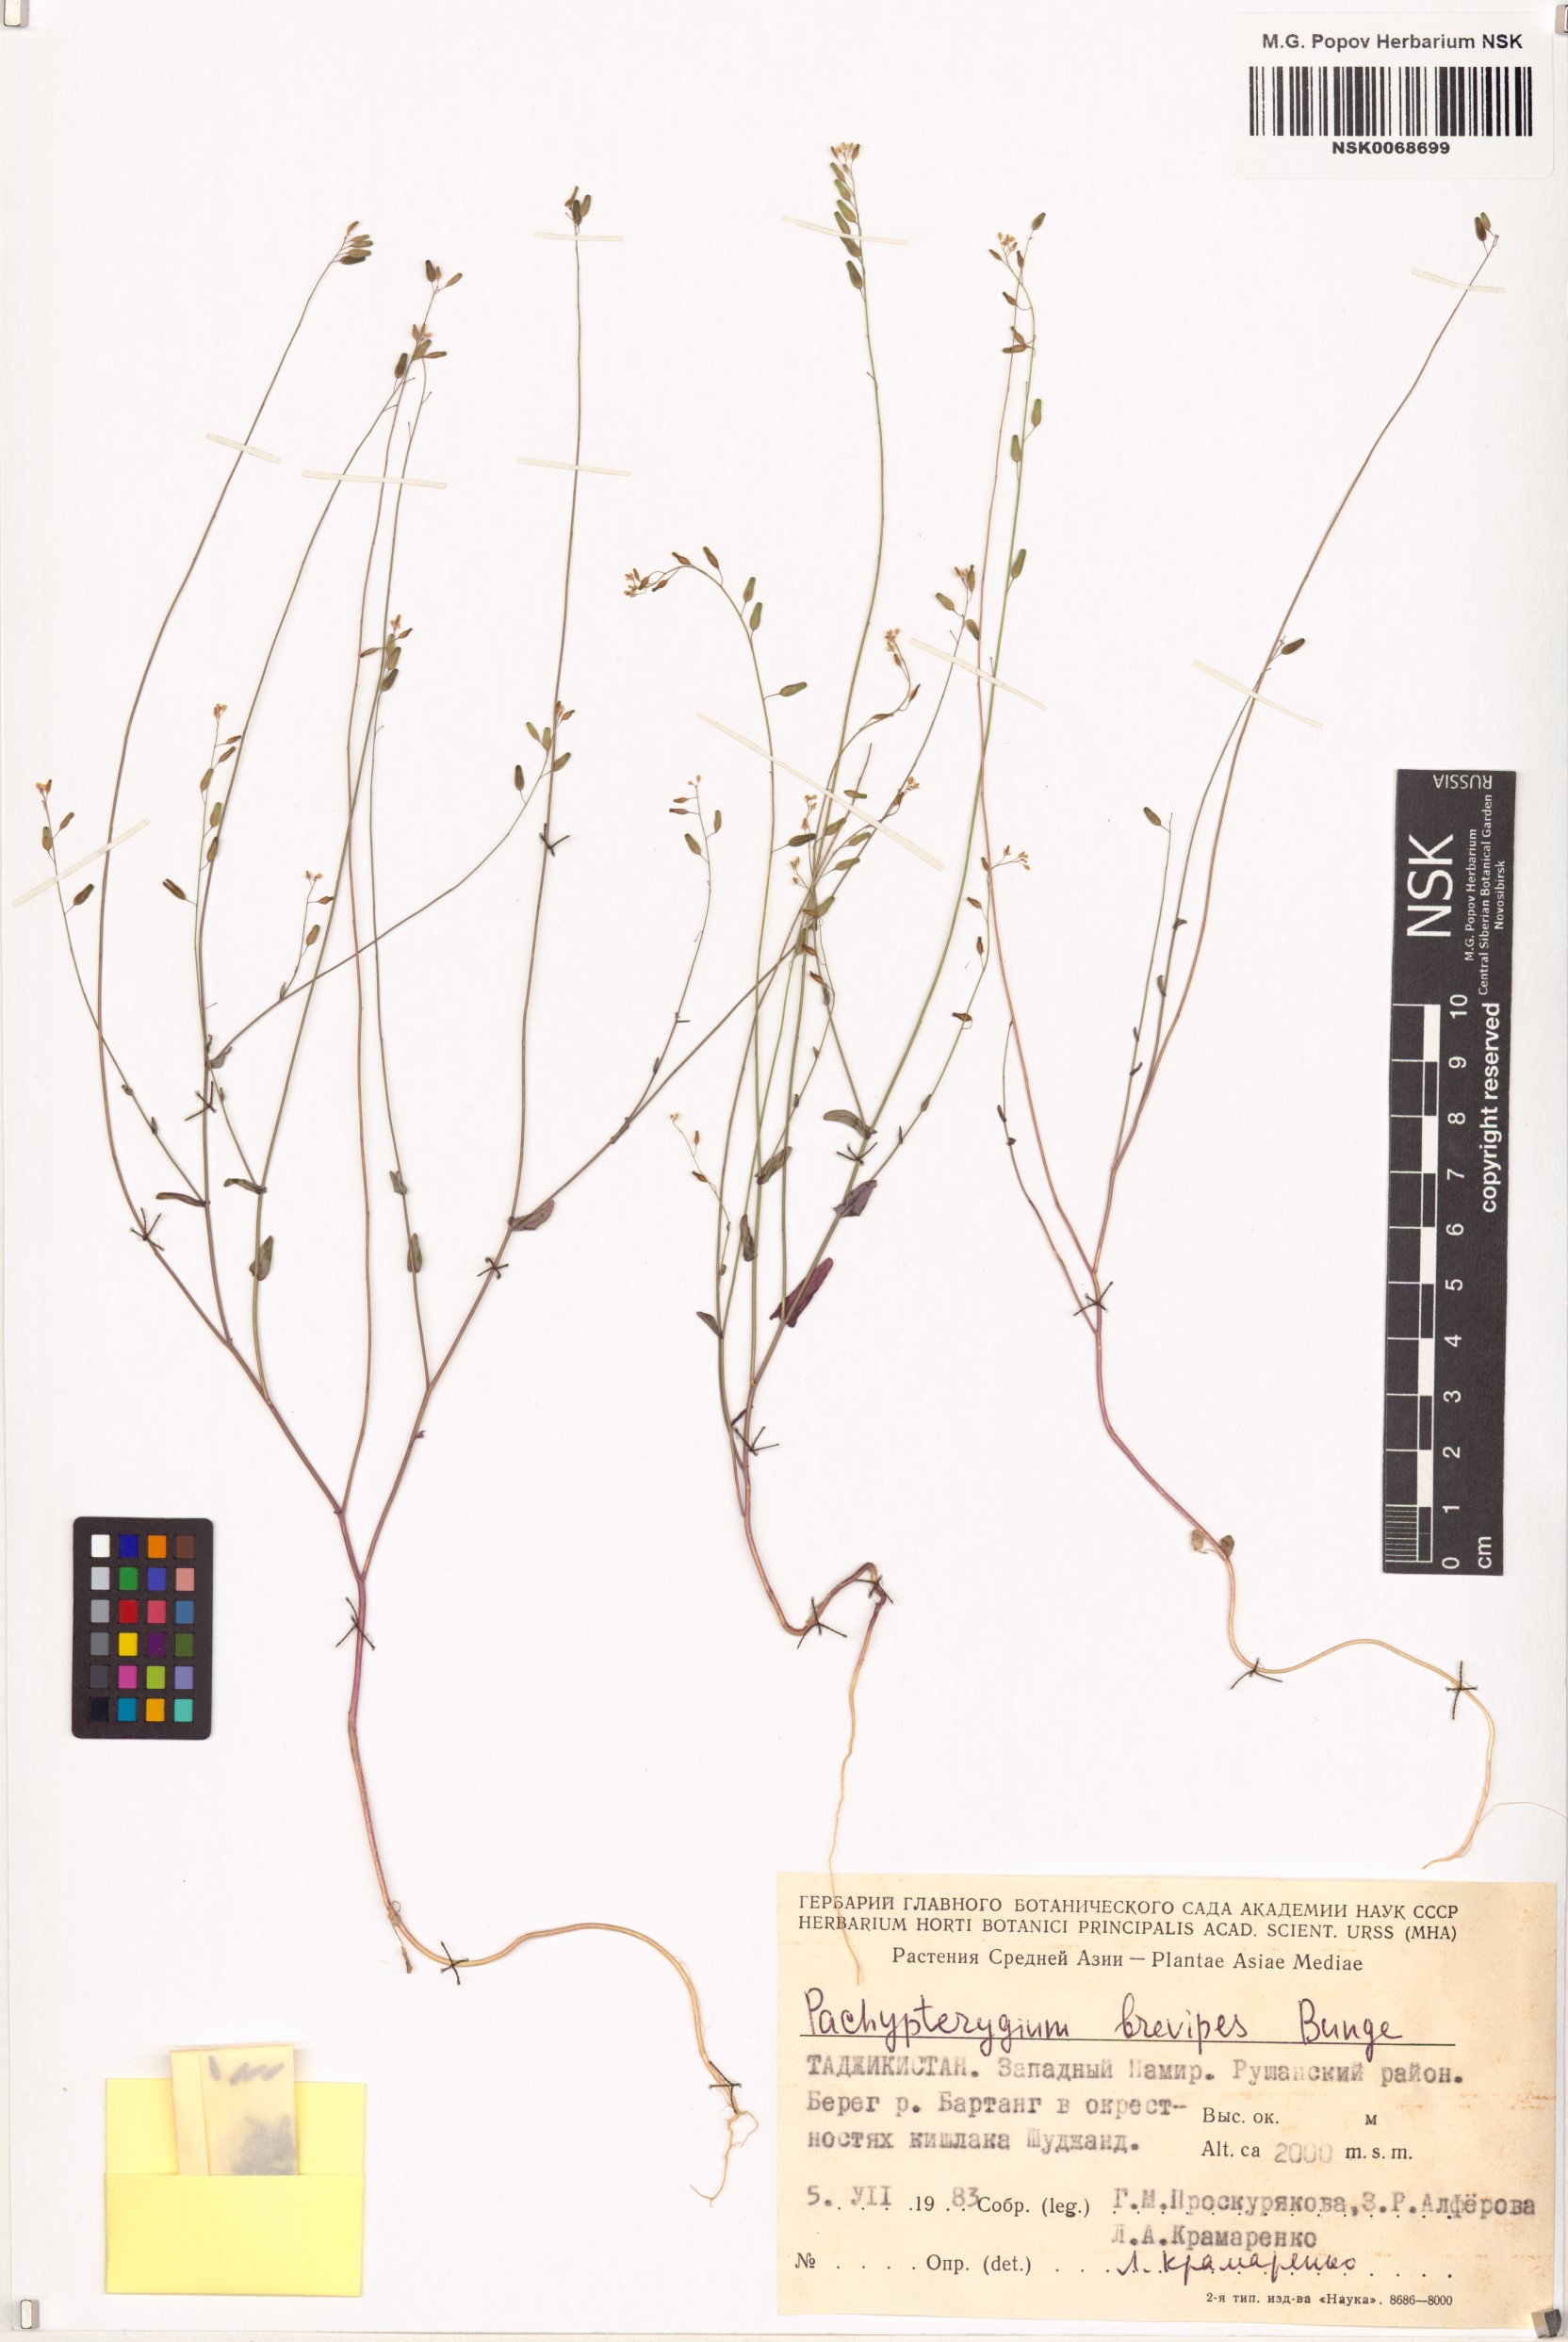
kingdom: Plantae
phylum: Tracheophyta
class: Magnoliopsida
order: Brassicales
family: Brassicaceae
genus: Isatis
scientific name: Isatis brevipes
